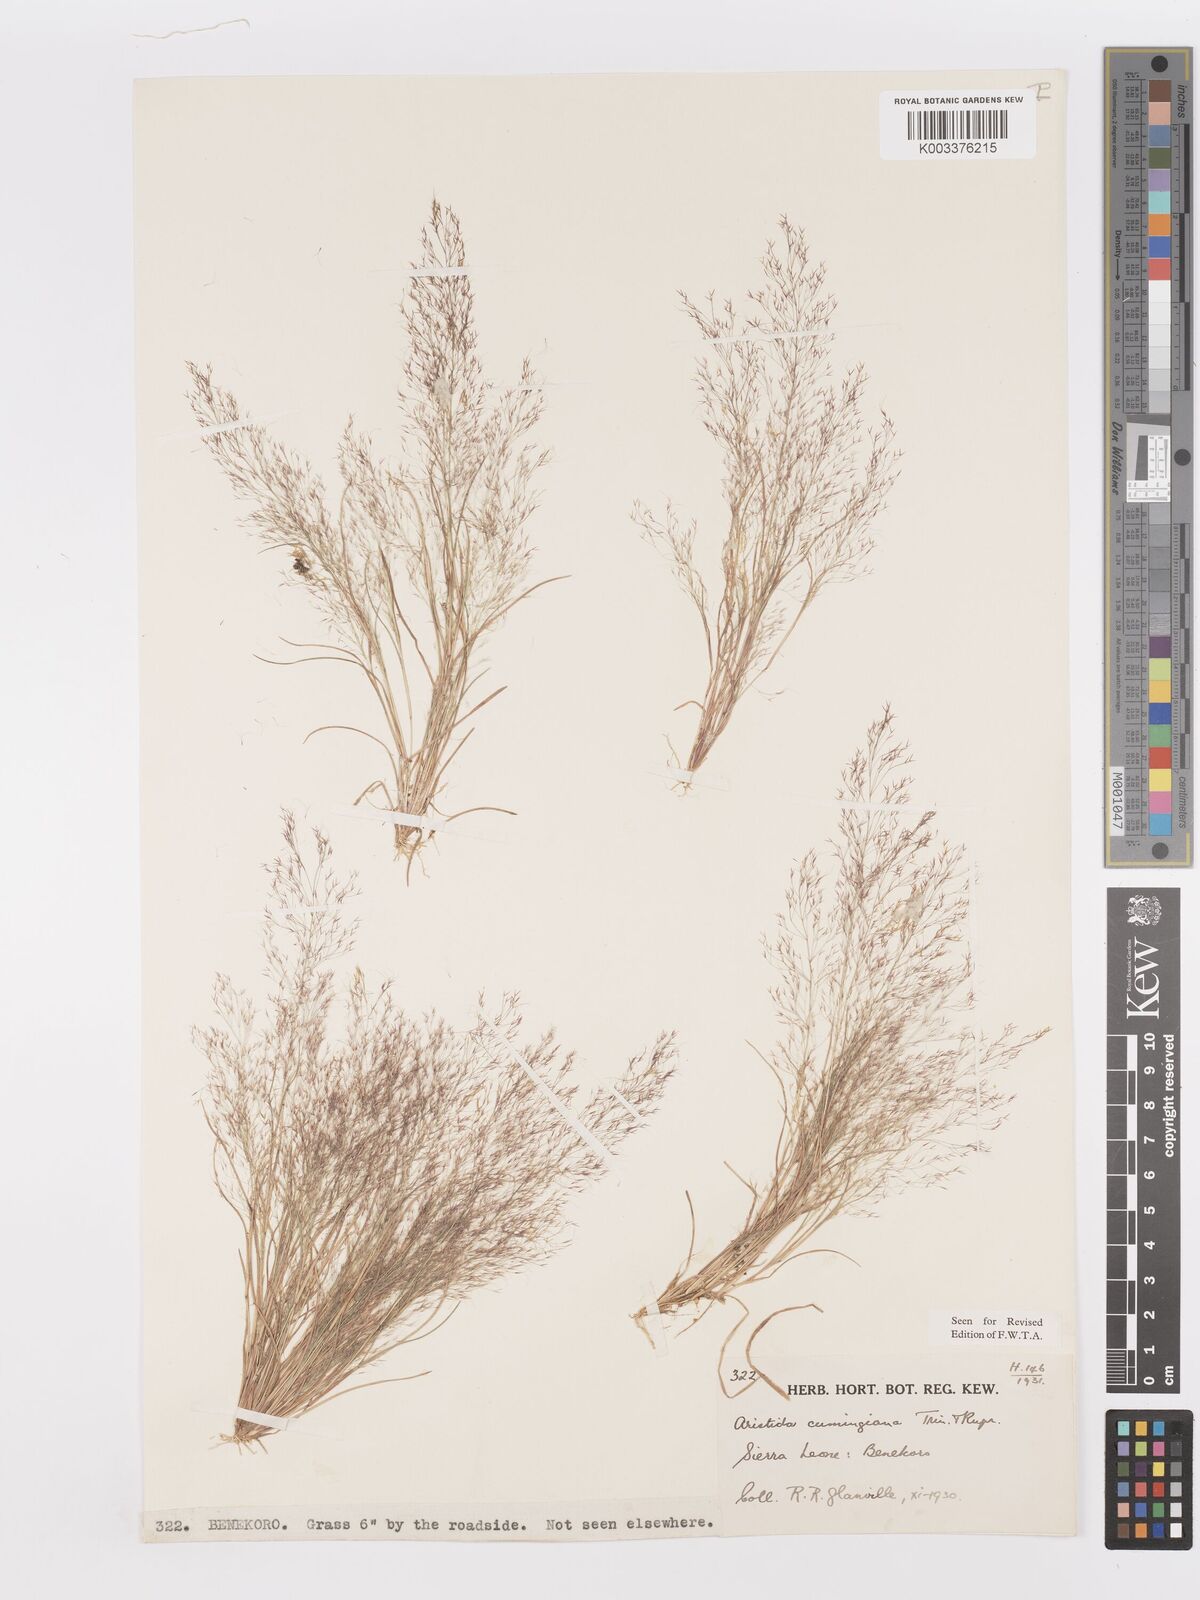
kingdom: Plantae
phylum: Tracheophyta
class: Liliopsida
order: Poales
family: Poaceae
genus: Aristida
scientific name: Aristida cumingiana
